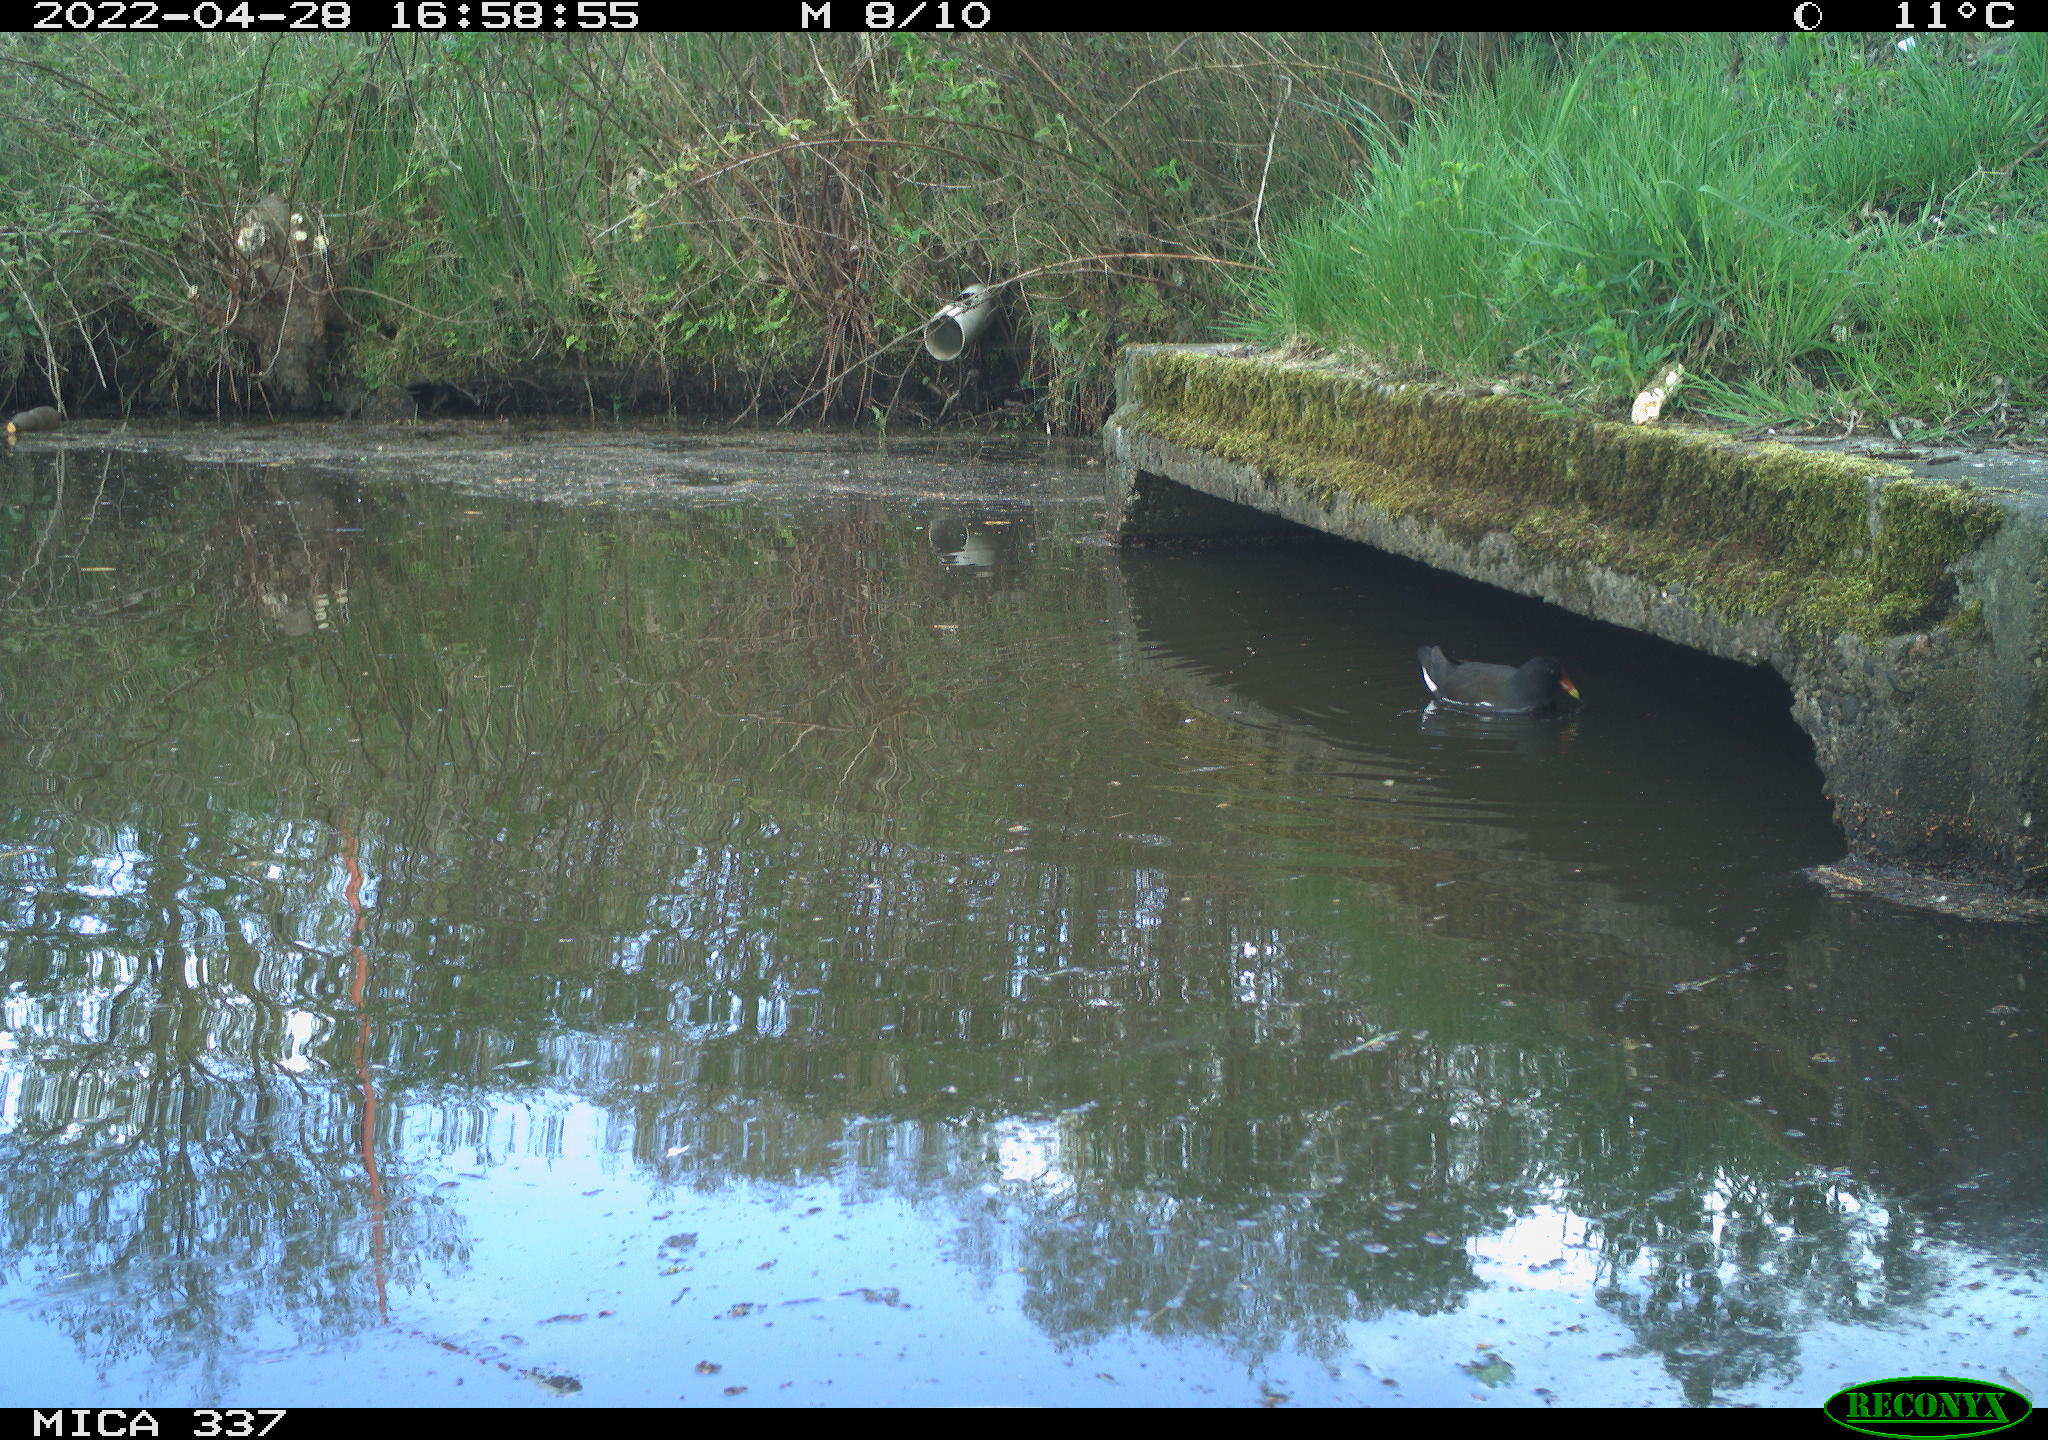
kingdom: Animalia
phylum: Chordata
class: Aves
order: Gruiformes
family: Rallidae
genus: Gallinula
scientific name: Gallinula chloropus
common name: Common moorhen
